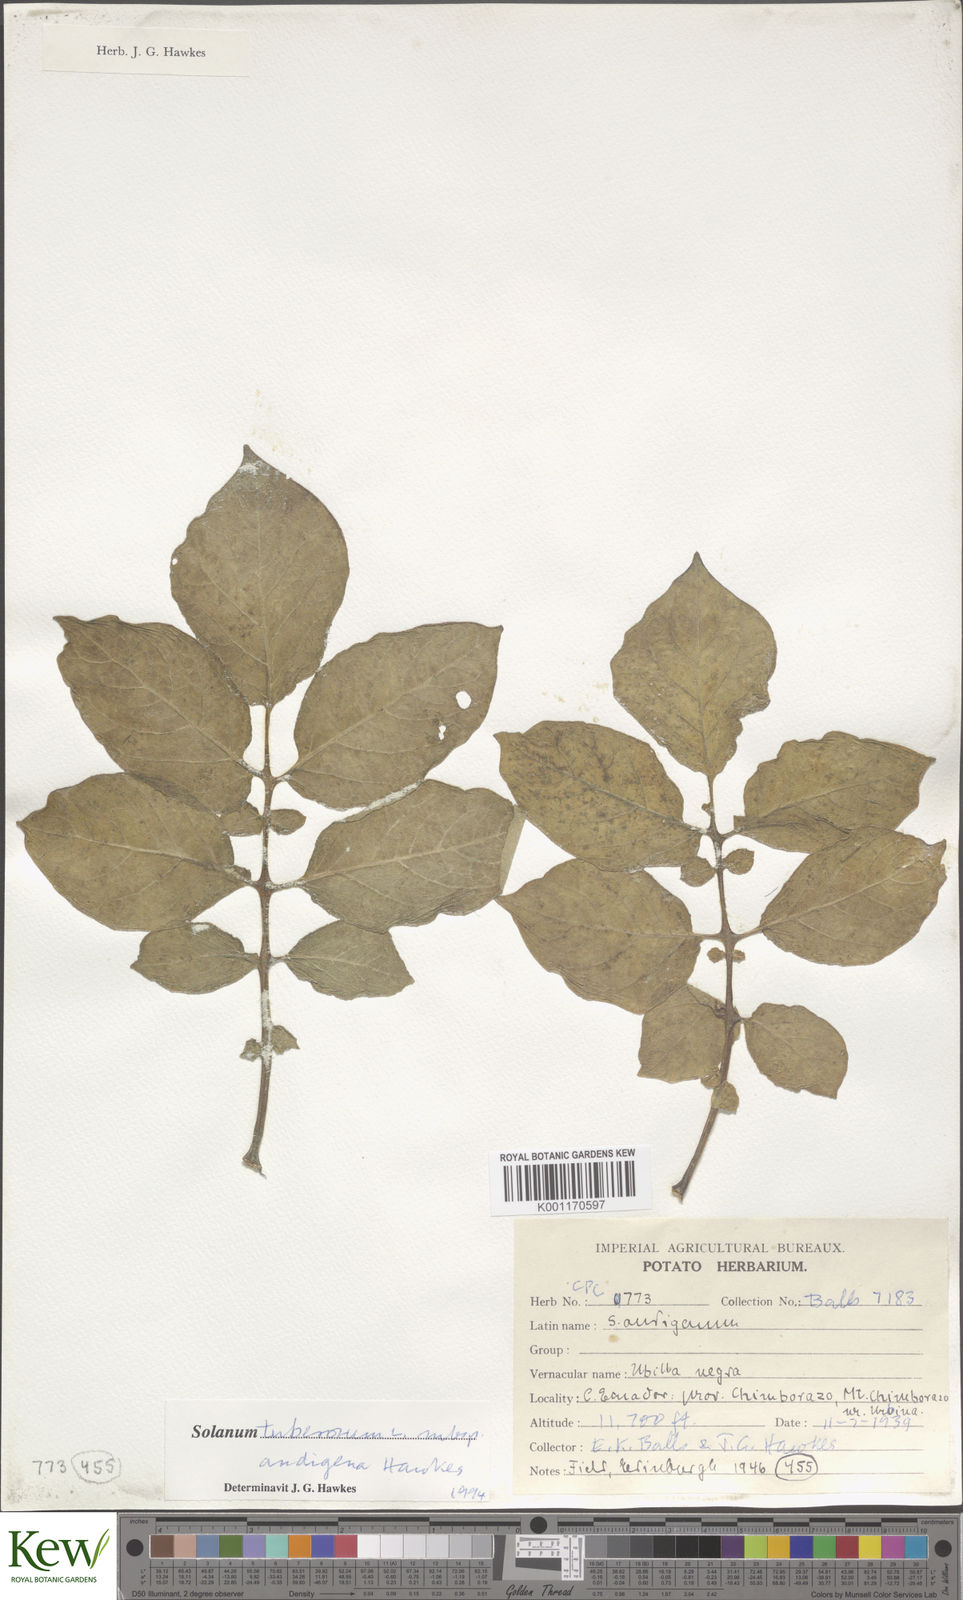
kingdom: Plantae
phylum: Tracheophyta
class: Magnoliopsida
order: Solanales
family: Solanaceae
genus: Solanum
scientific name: Solanum tuberosum
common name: Potato
